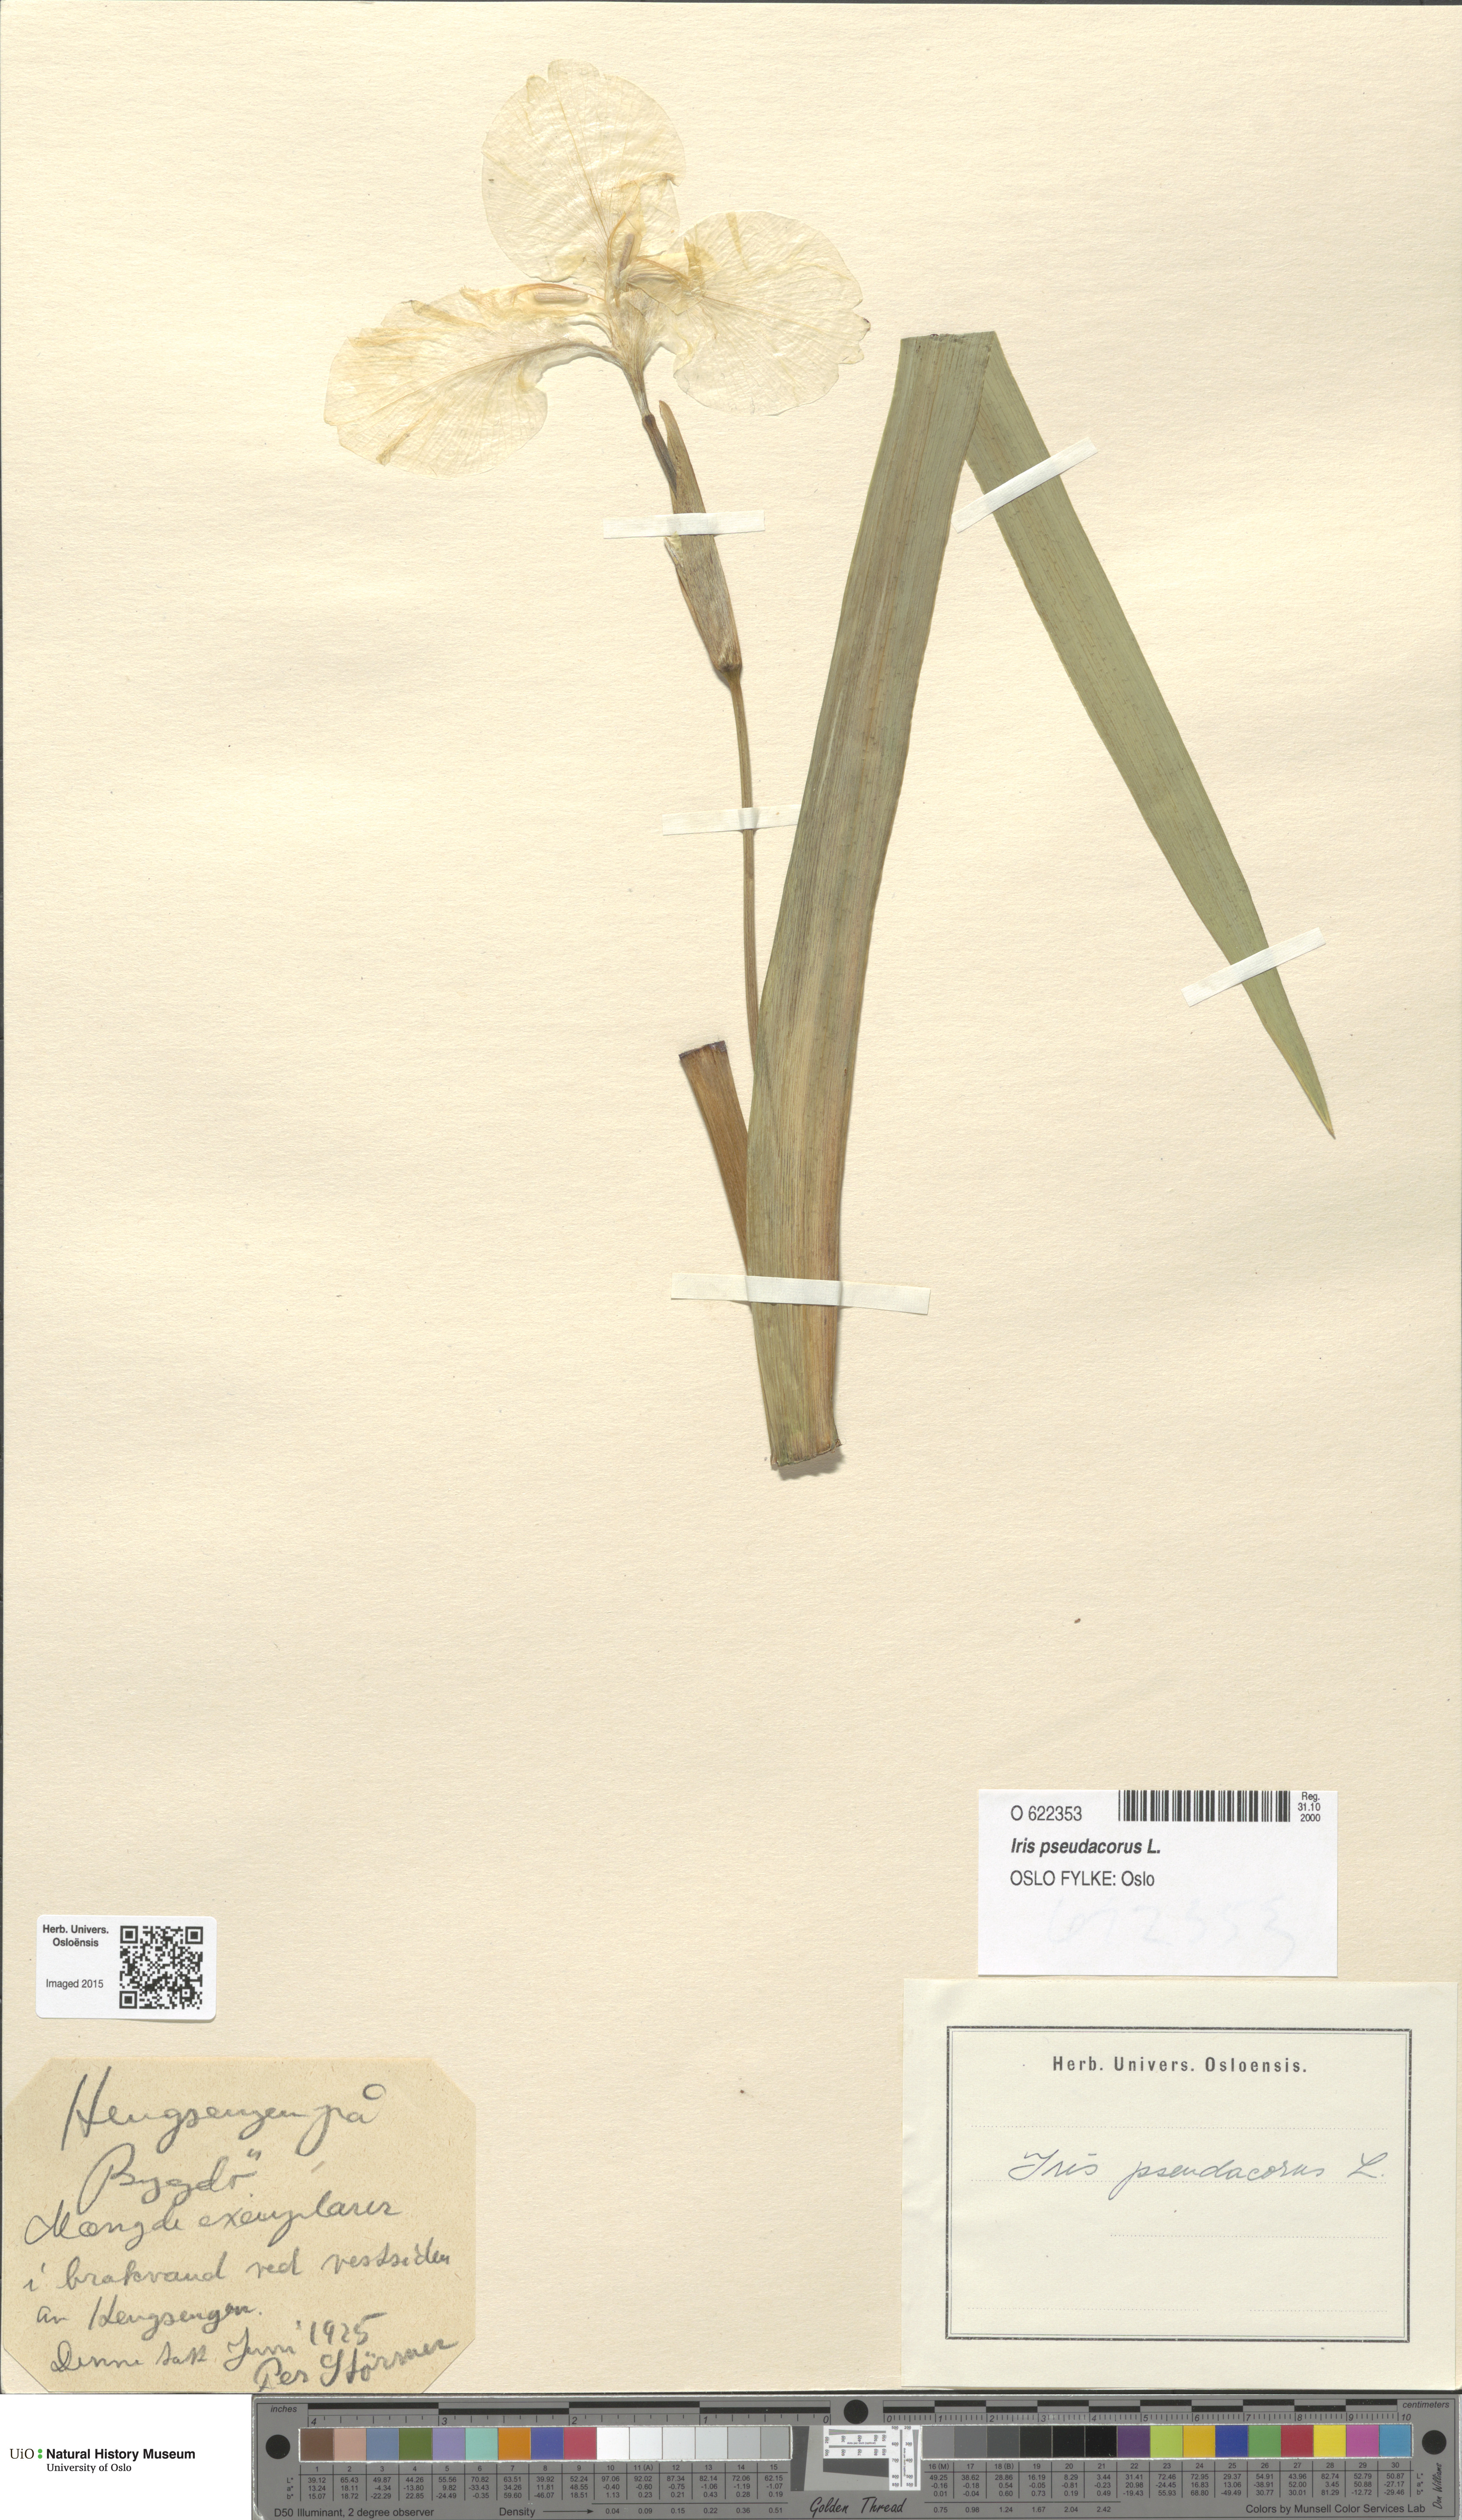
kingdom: Plantae
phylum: Tracheophyta
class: Liliopsida
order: Asparagales
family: Iridaceae
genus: Iris
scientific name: Iris pseudacorus
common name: Yellow flag
